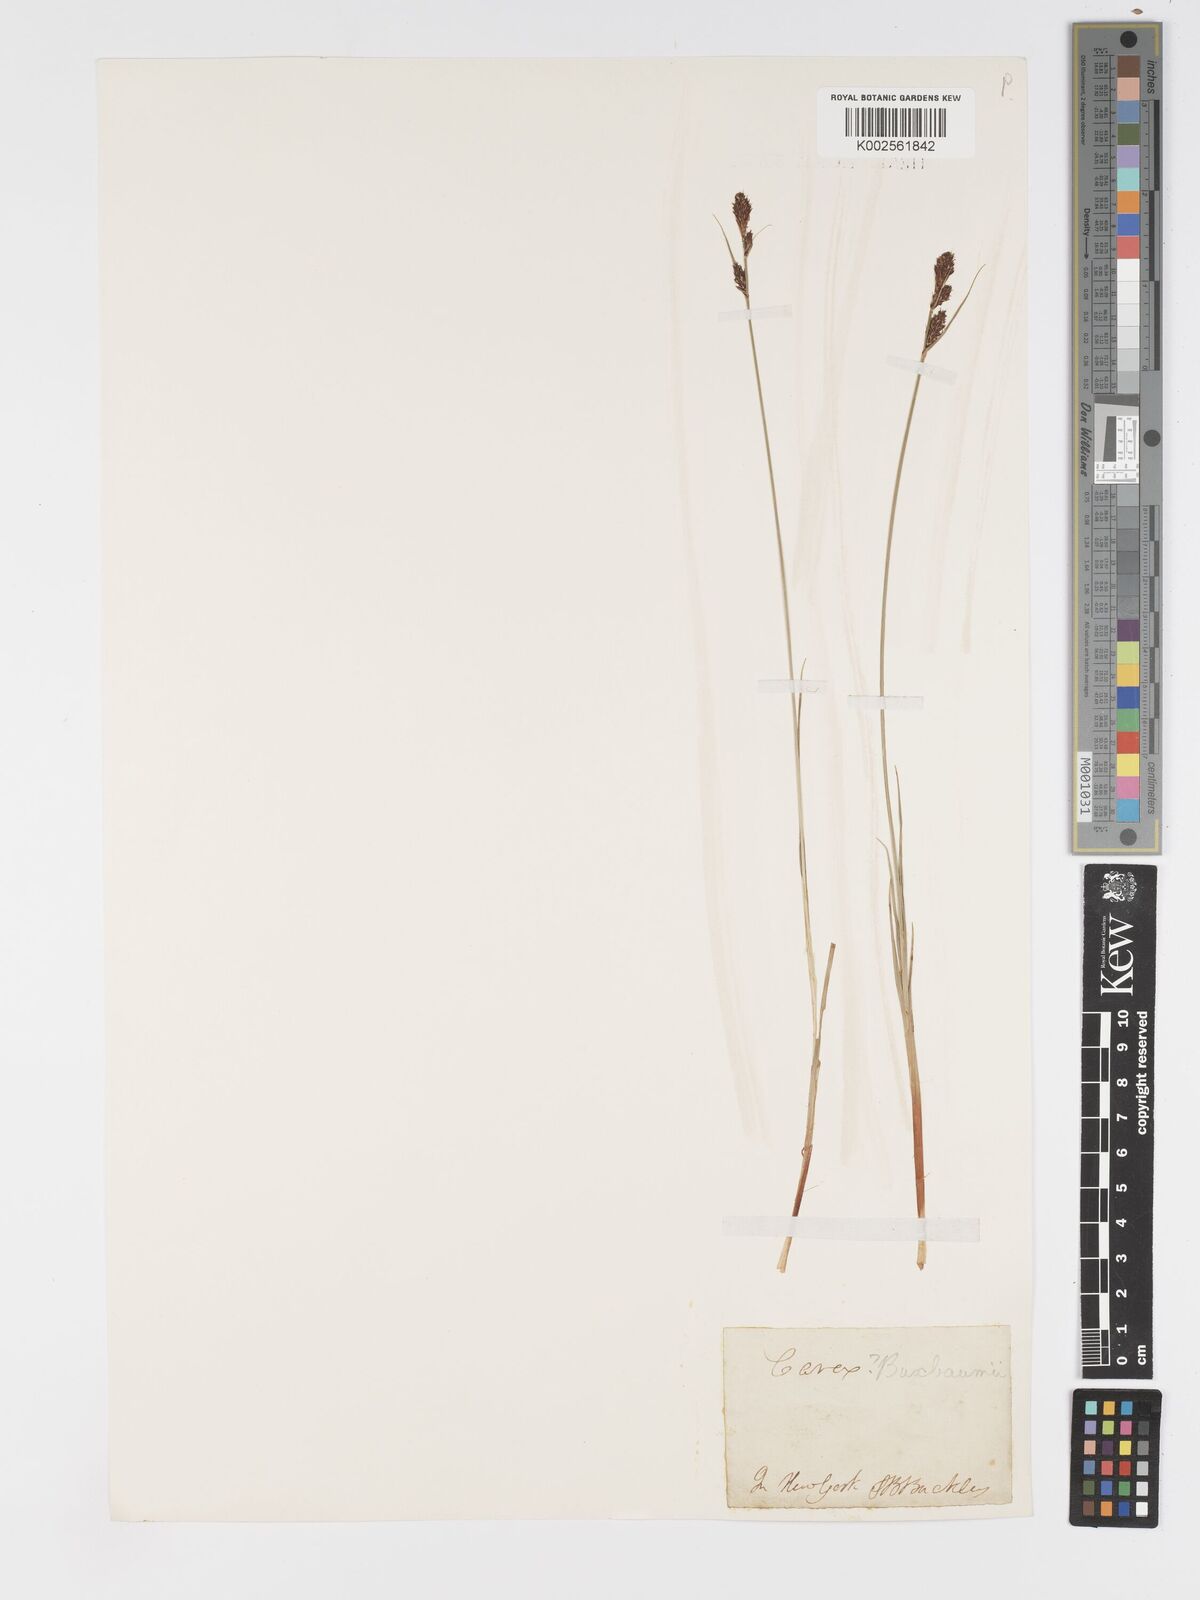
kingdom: Plantae
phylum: Tracheophyta
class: Liliopsida
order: Poales
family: Cyperaceae
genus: Carex
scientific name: Carex buxbaumii
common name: Club sedge
